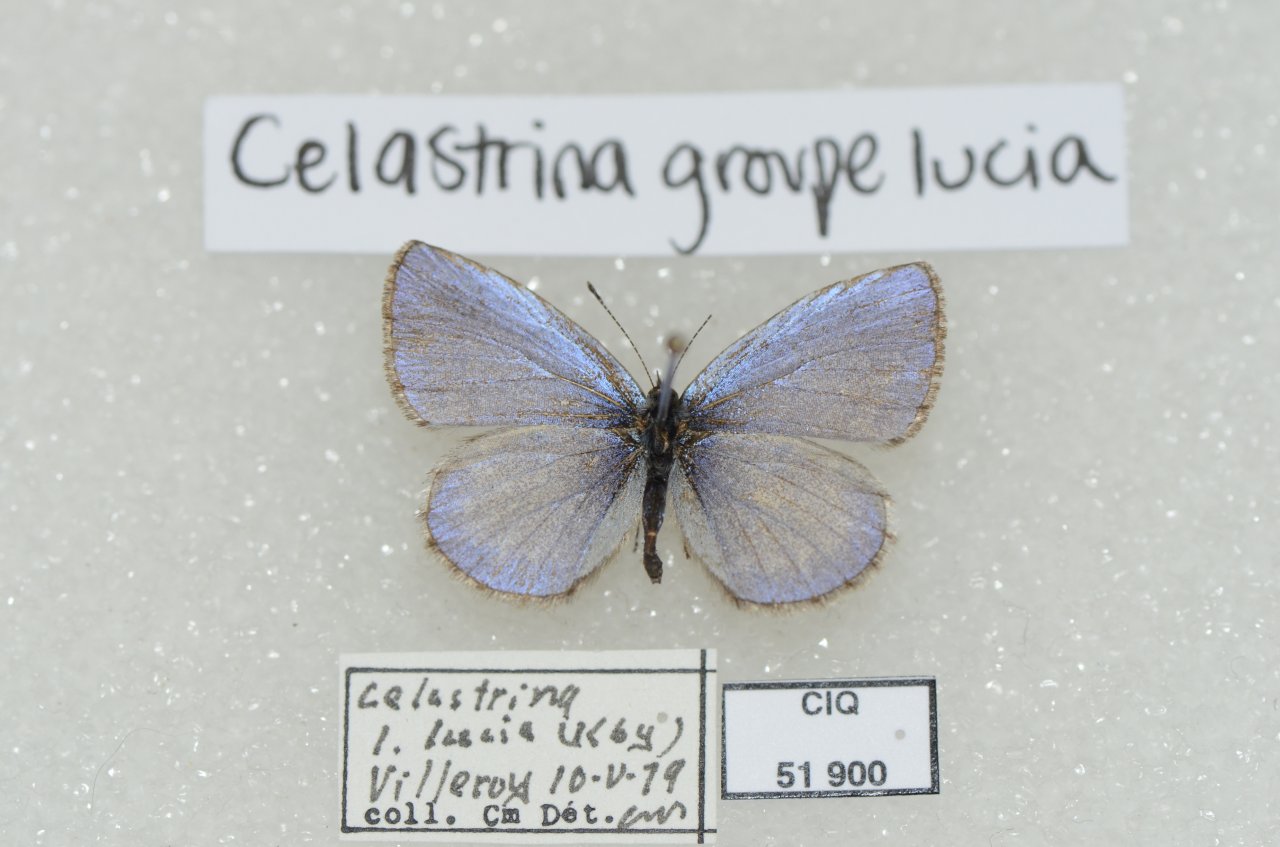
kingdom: Animalia
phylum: Arthropoda
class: Insecta
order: Lepidoptera
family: Lycaenidae
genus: Celastrina
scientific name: Celastrina lucia
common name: Northern Spring Azure
